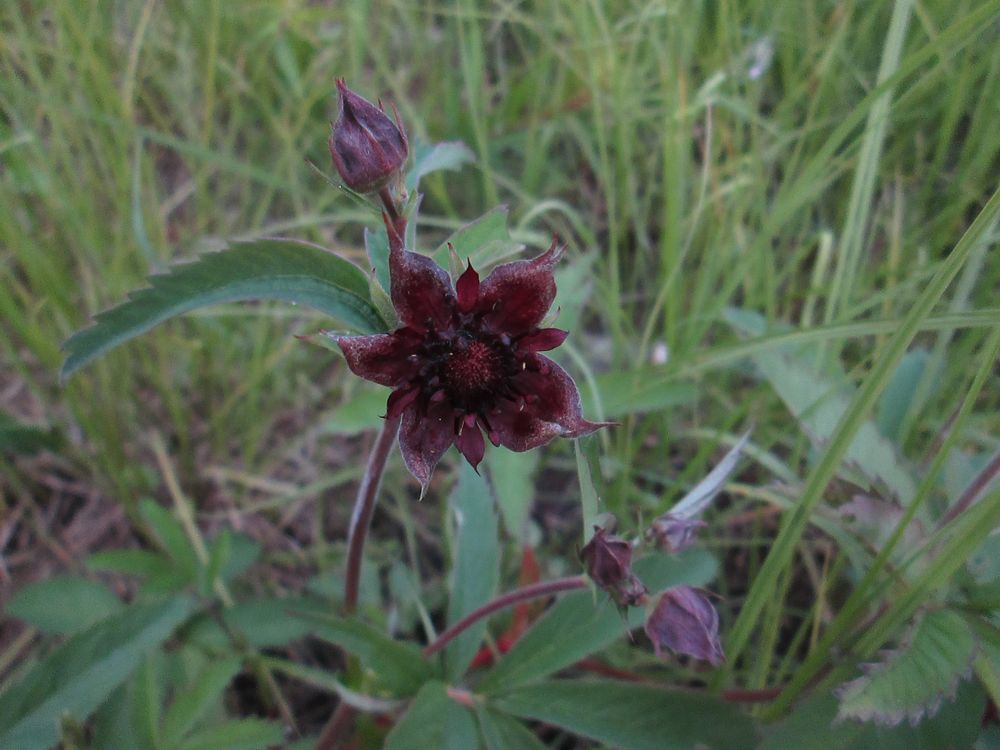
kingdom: Plantae
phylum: Tracheophyta
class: Magnoliopsida
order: Rosales
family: Rosaceae
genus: Comarum
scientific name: Comarum palustre
